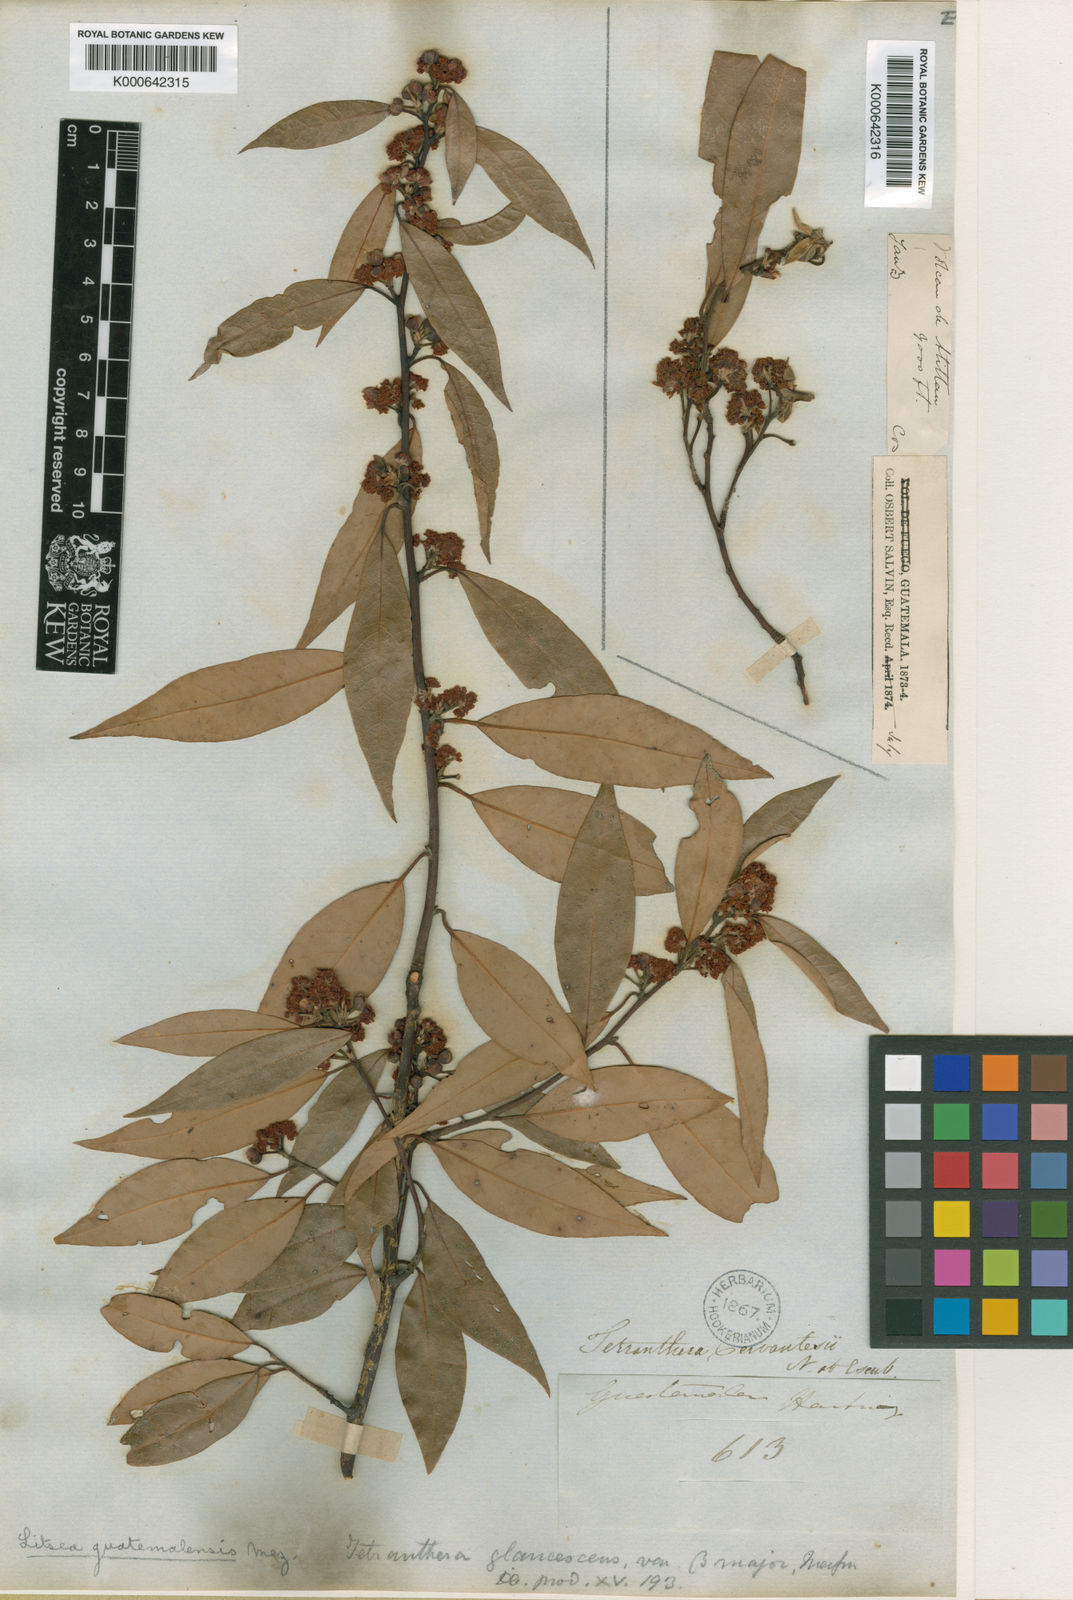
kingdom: Plantae
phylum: Tracheophyta
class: Magnoliopsida
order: Laurales
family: Lauraceae
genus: Licaria
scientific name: Licaria triandra
